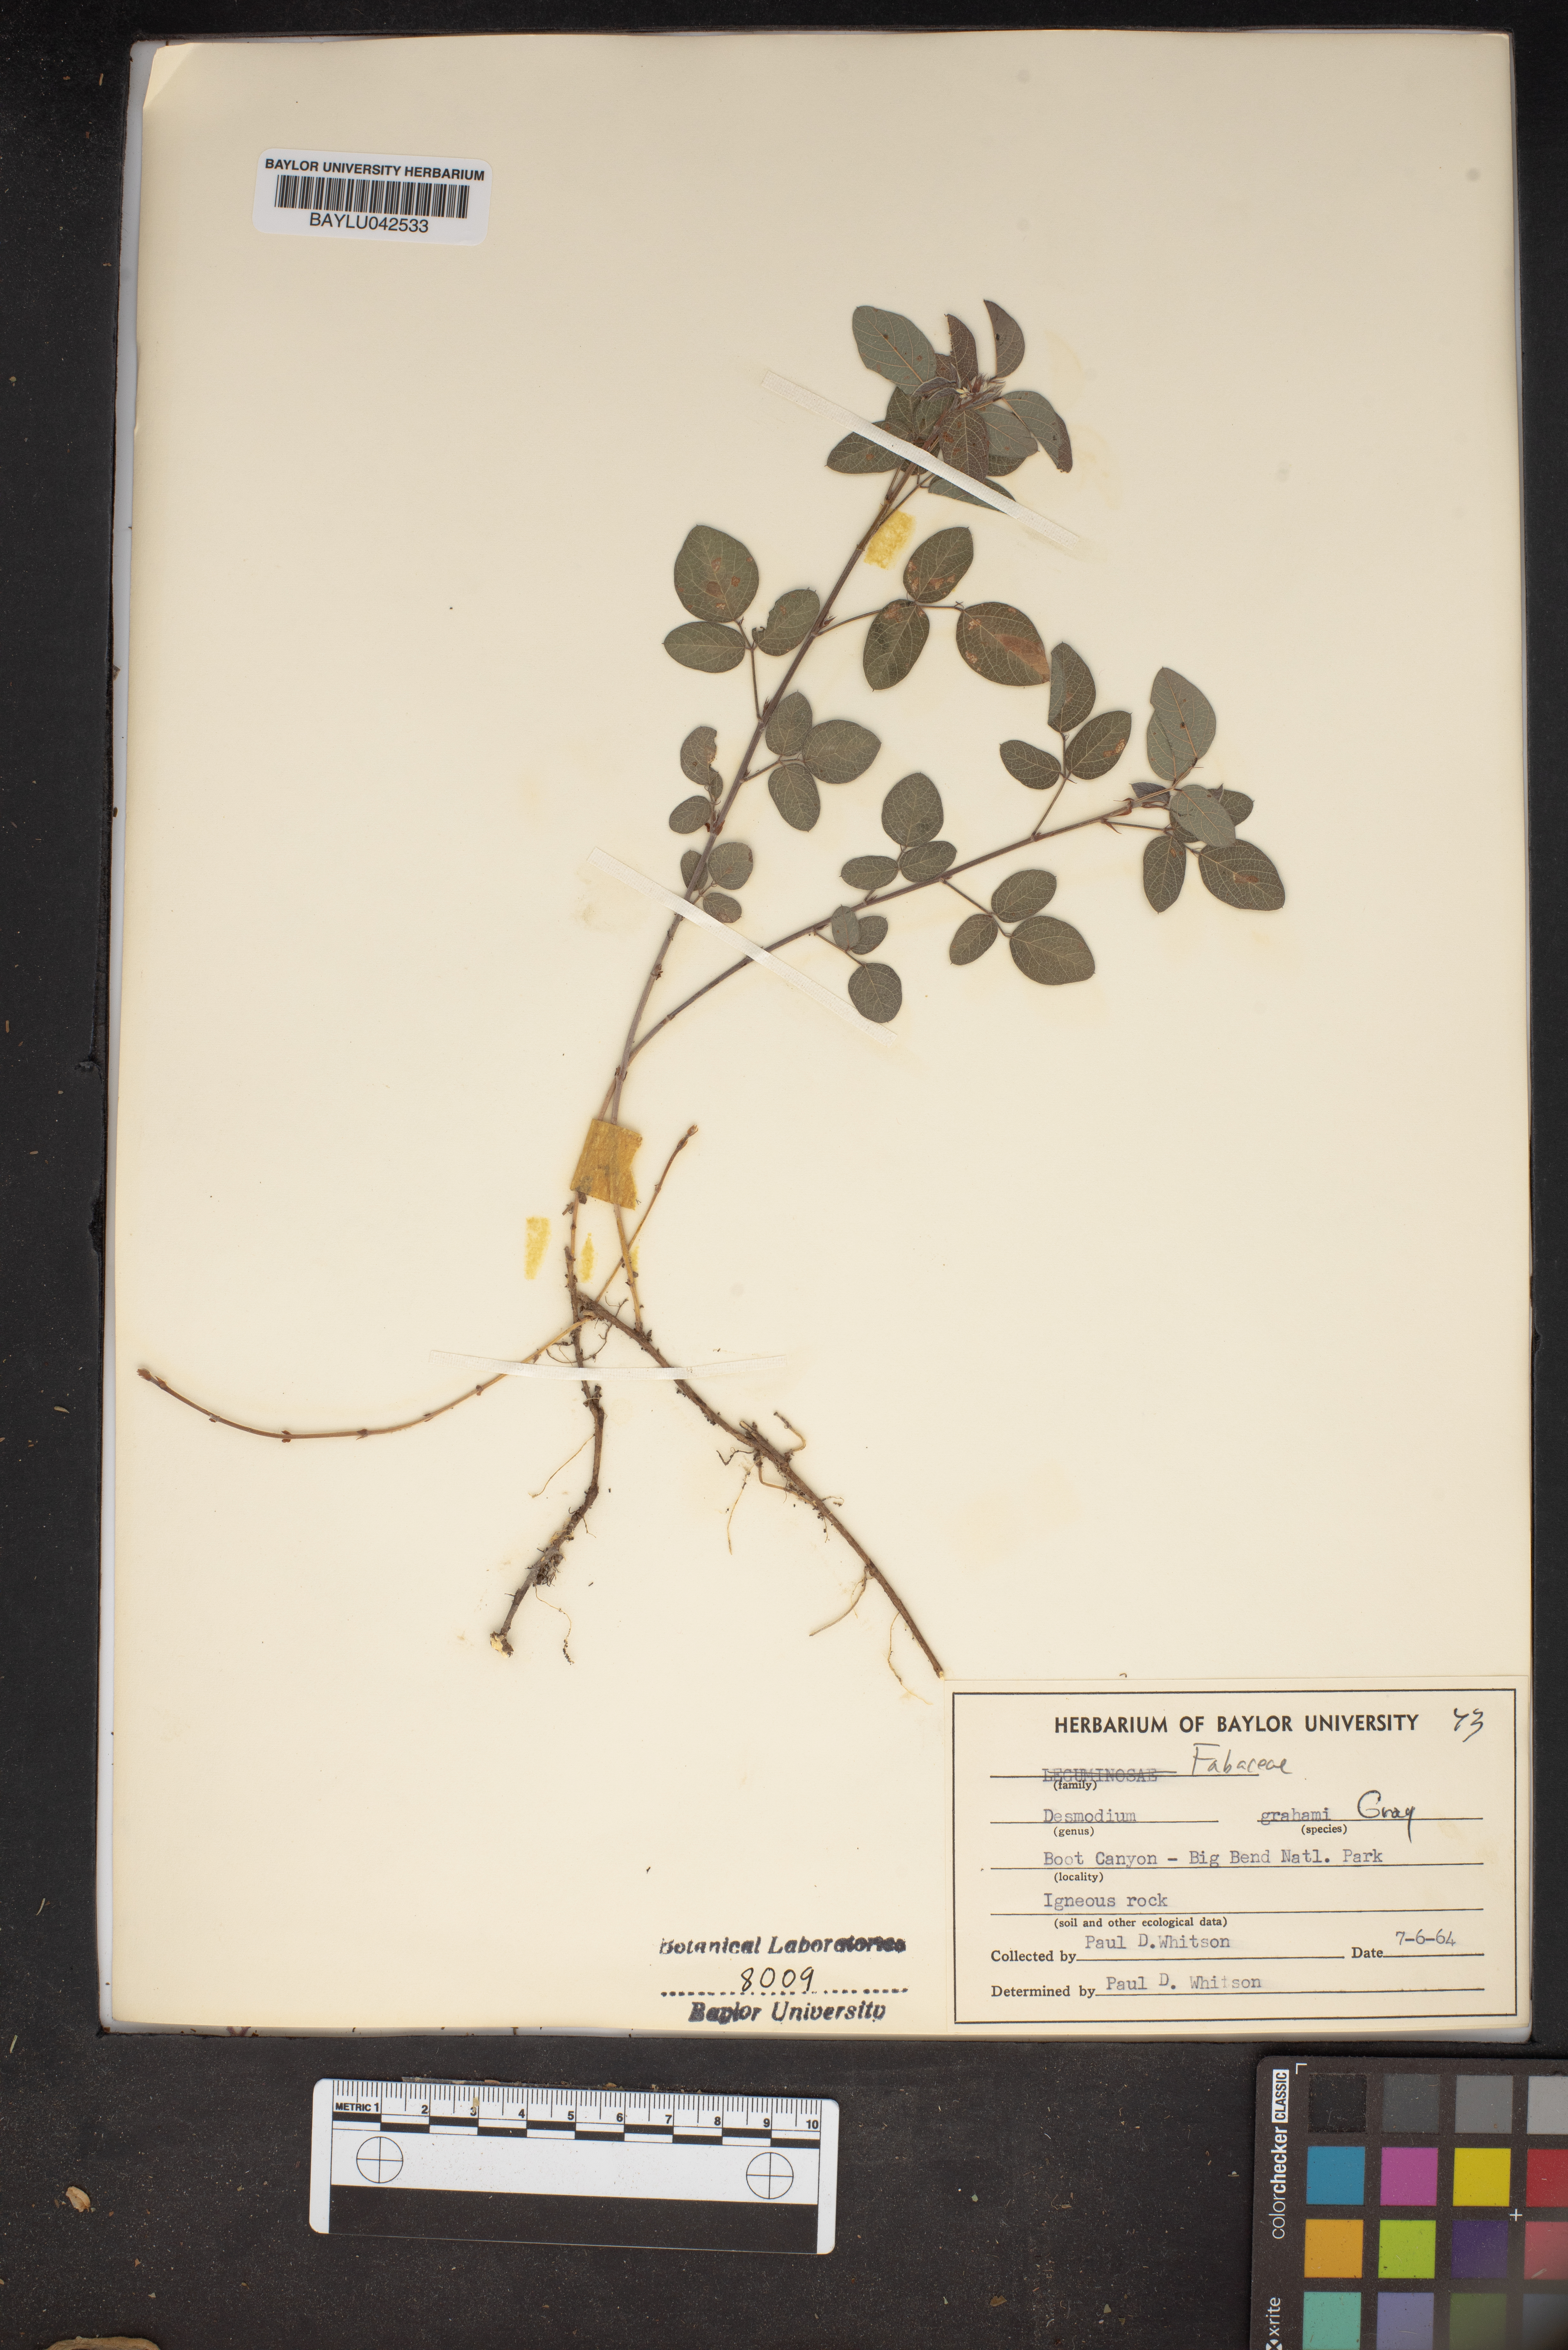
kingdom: Plantae
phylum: Tracheophyta
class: Magnoliopsida
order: Fabales
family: Fabaceae
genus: Desmodium
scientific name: Desmodium grahamii
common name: Graham's tick-trefoil
